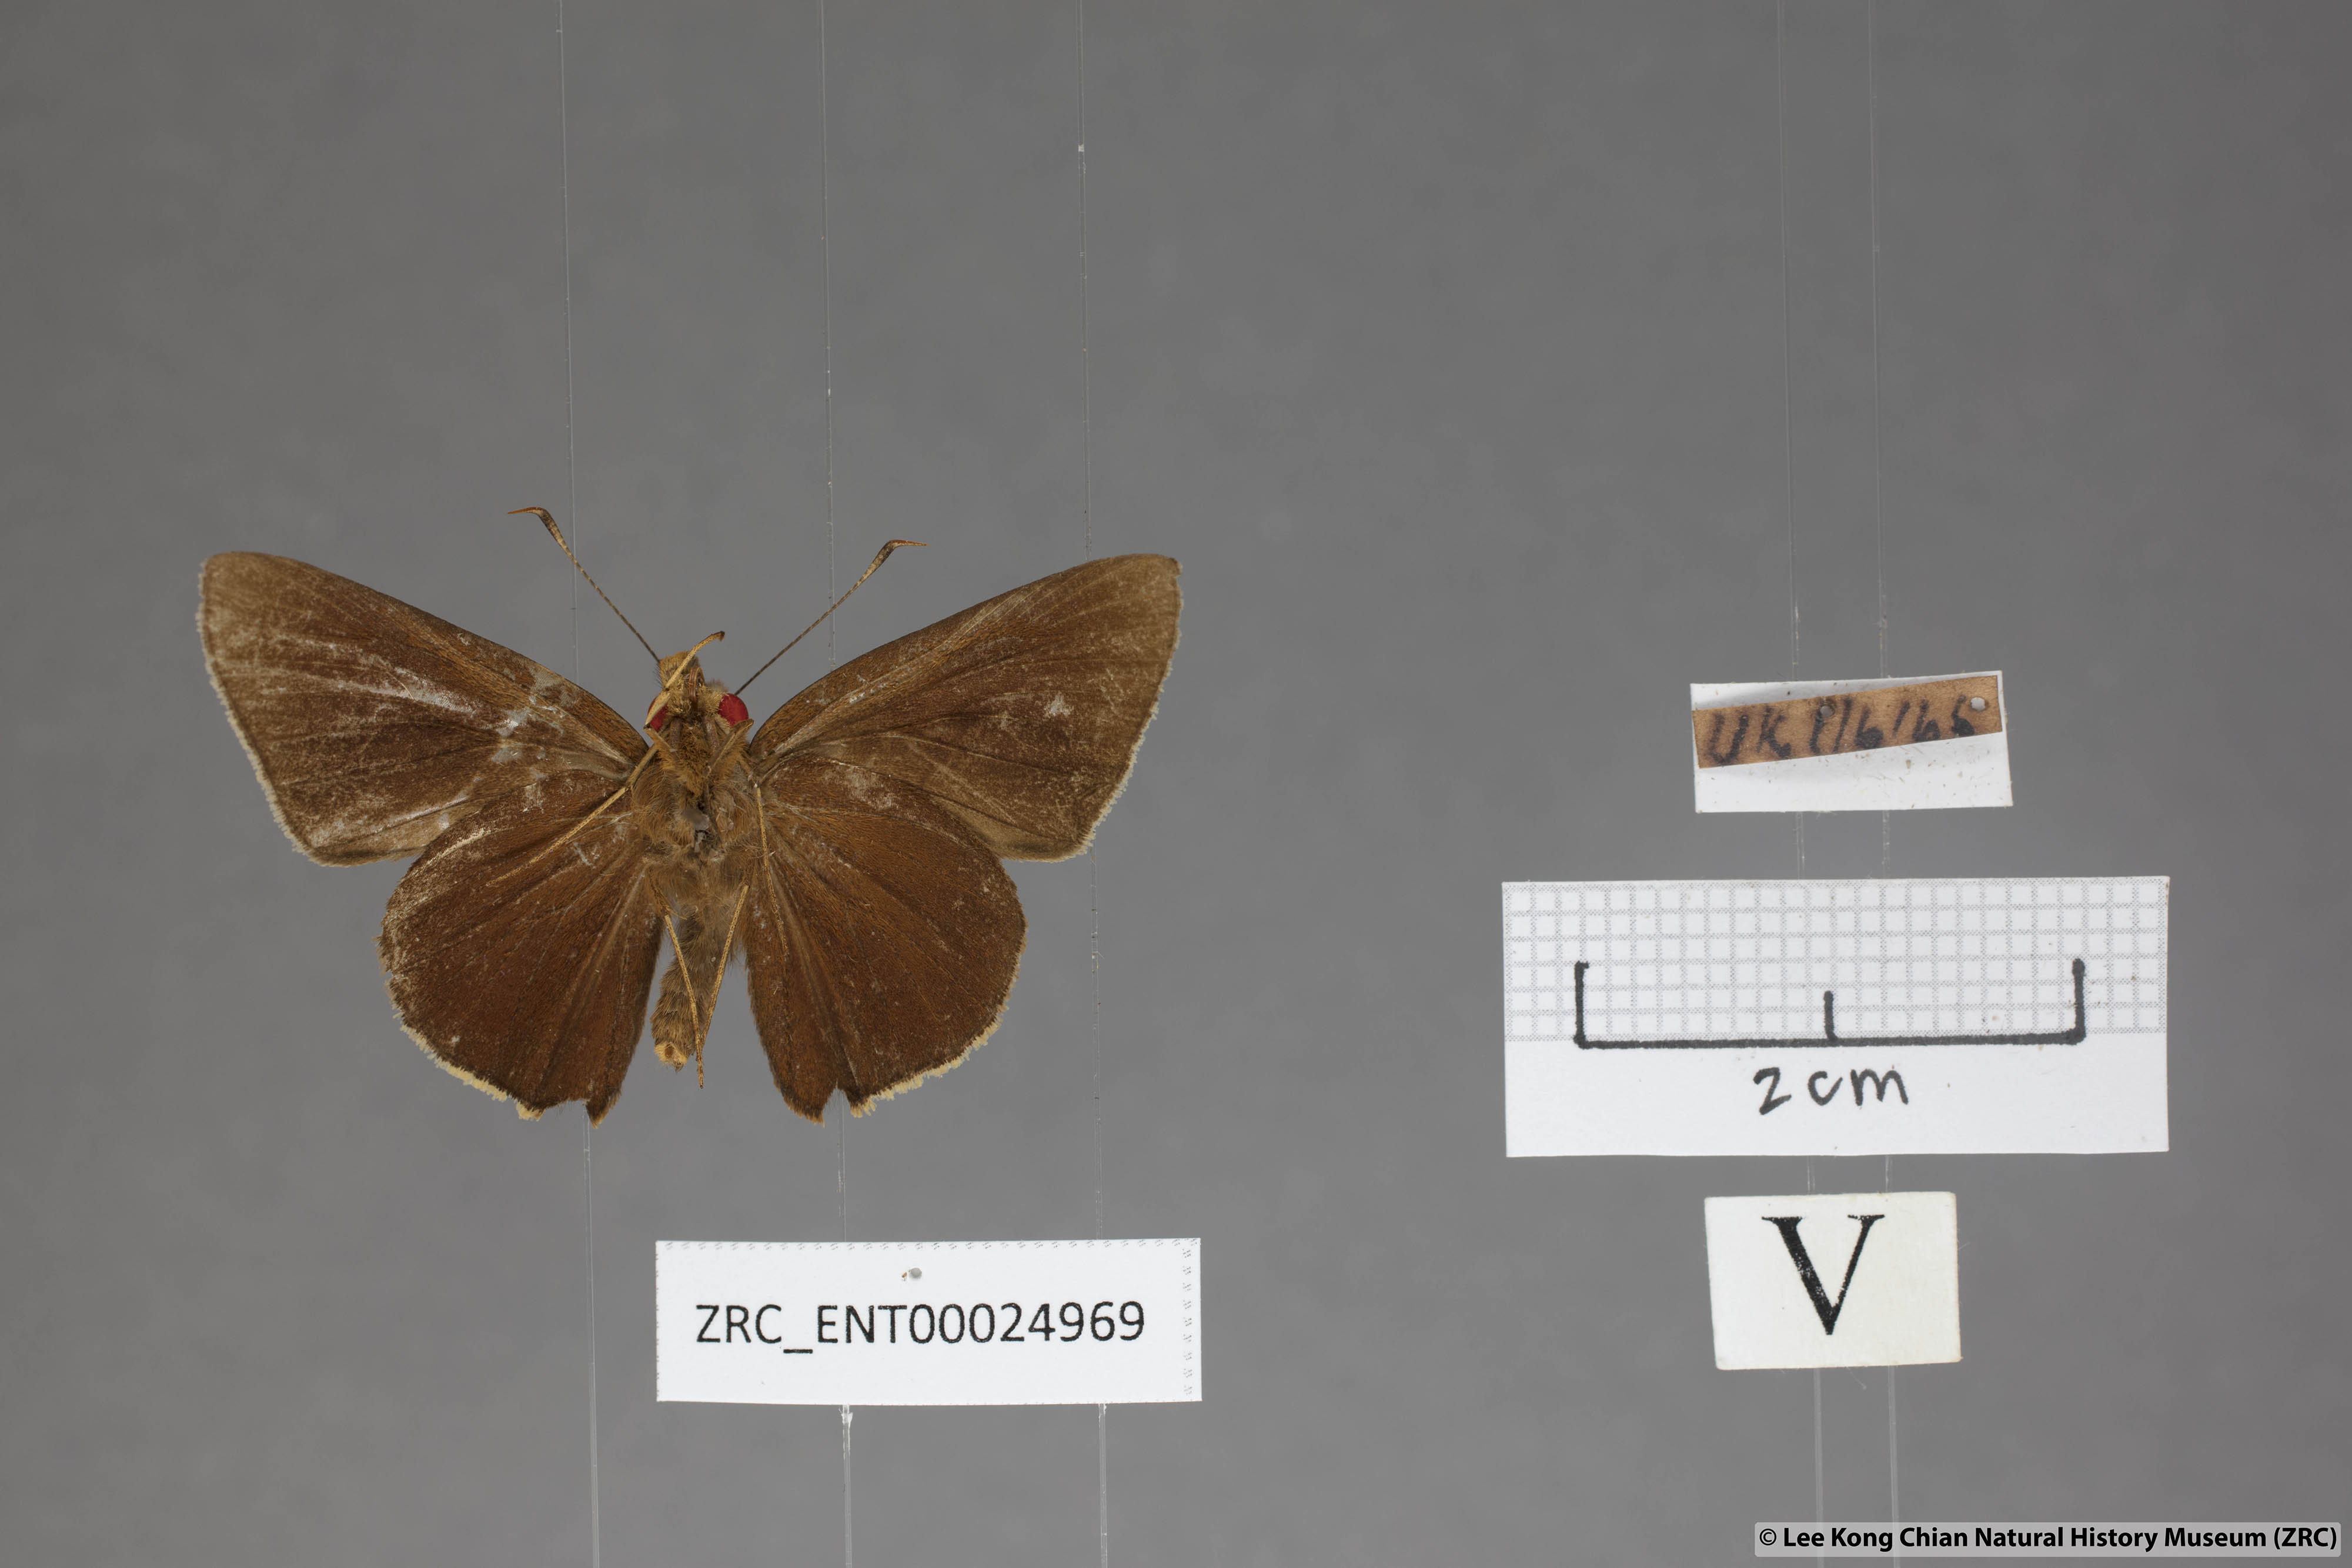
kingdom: Animalia
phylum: Arthropoda
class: Insecta
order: Lepidoptera
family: Hesperiidae
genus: Matapa
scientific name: Matapa aria
